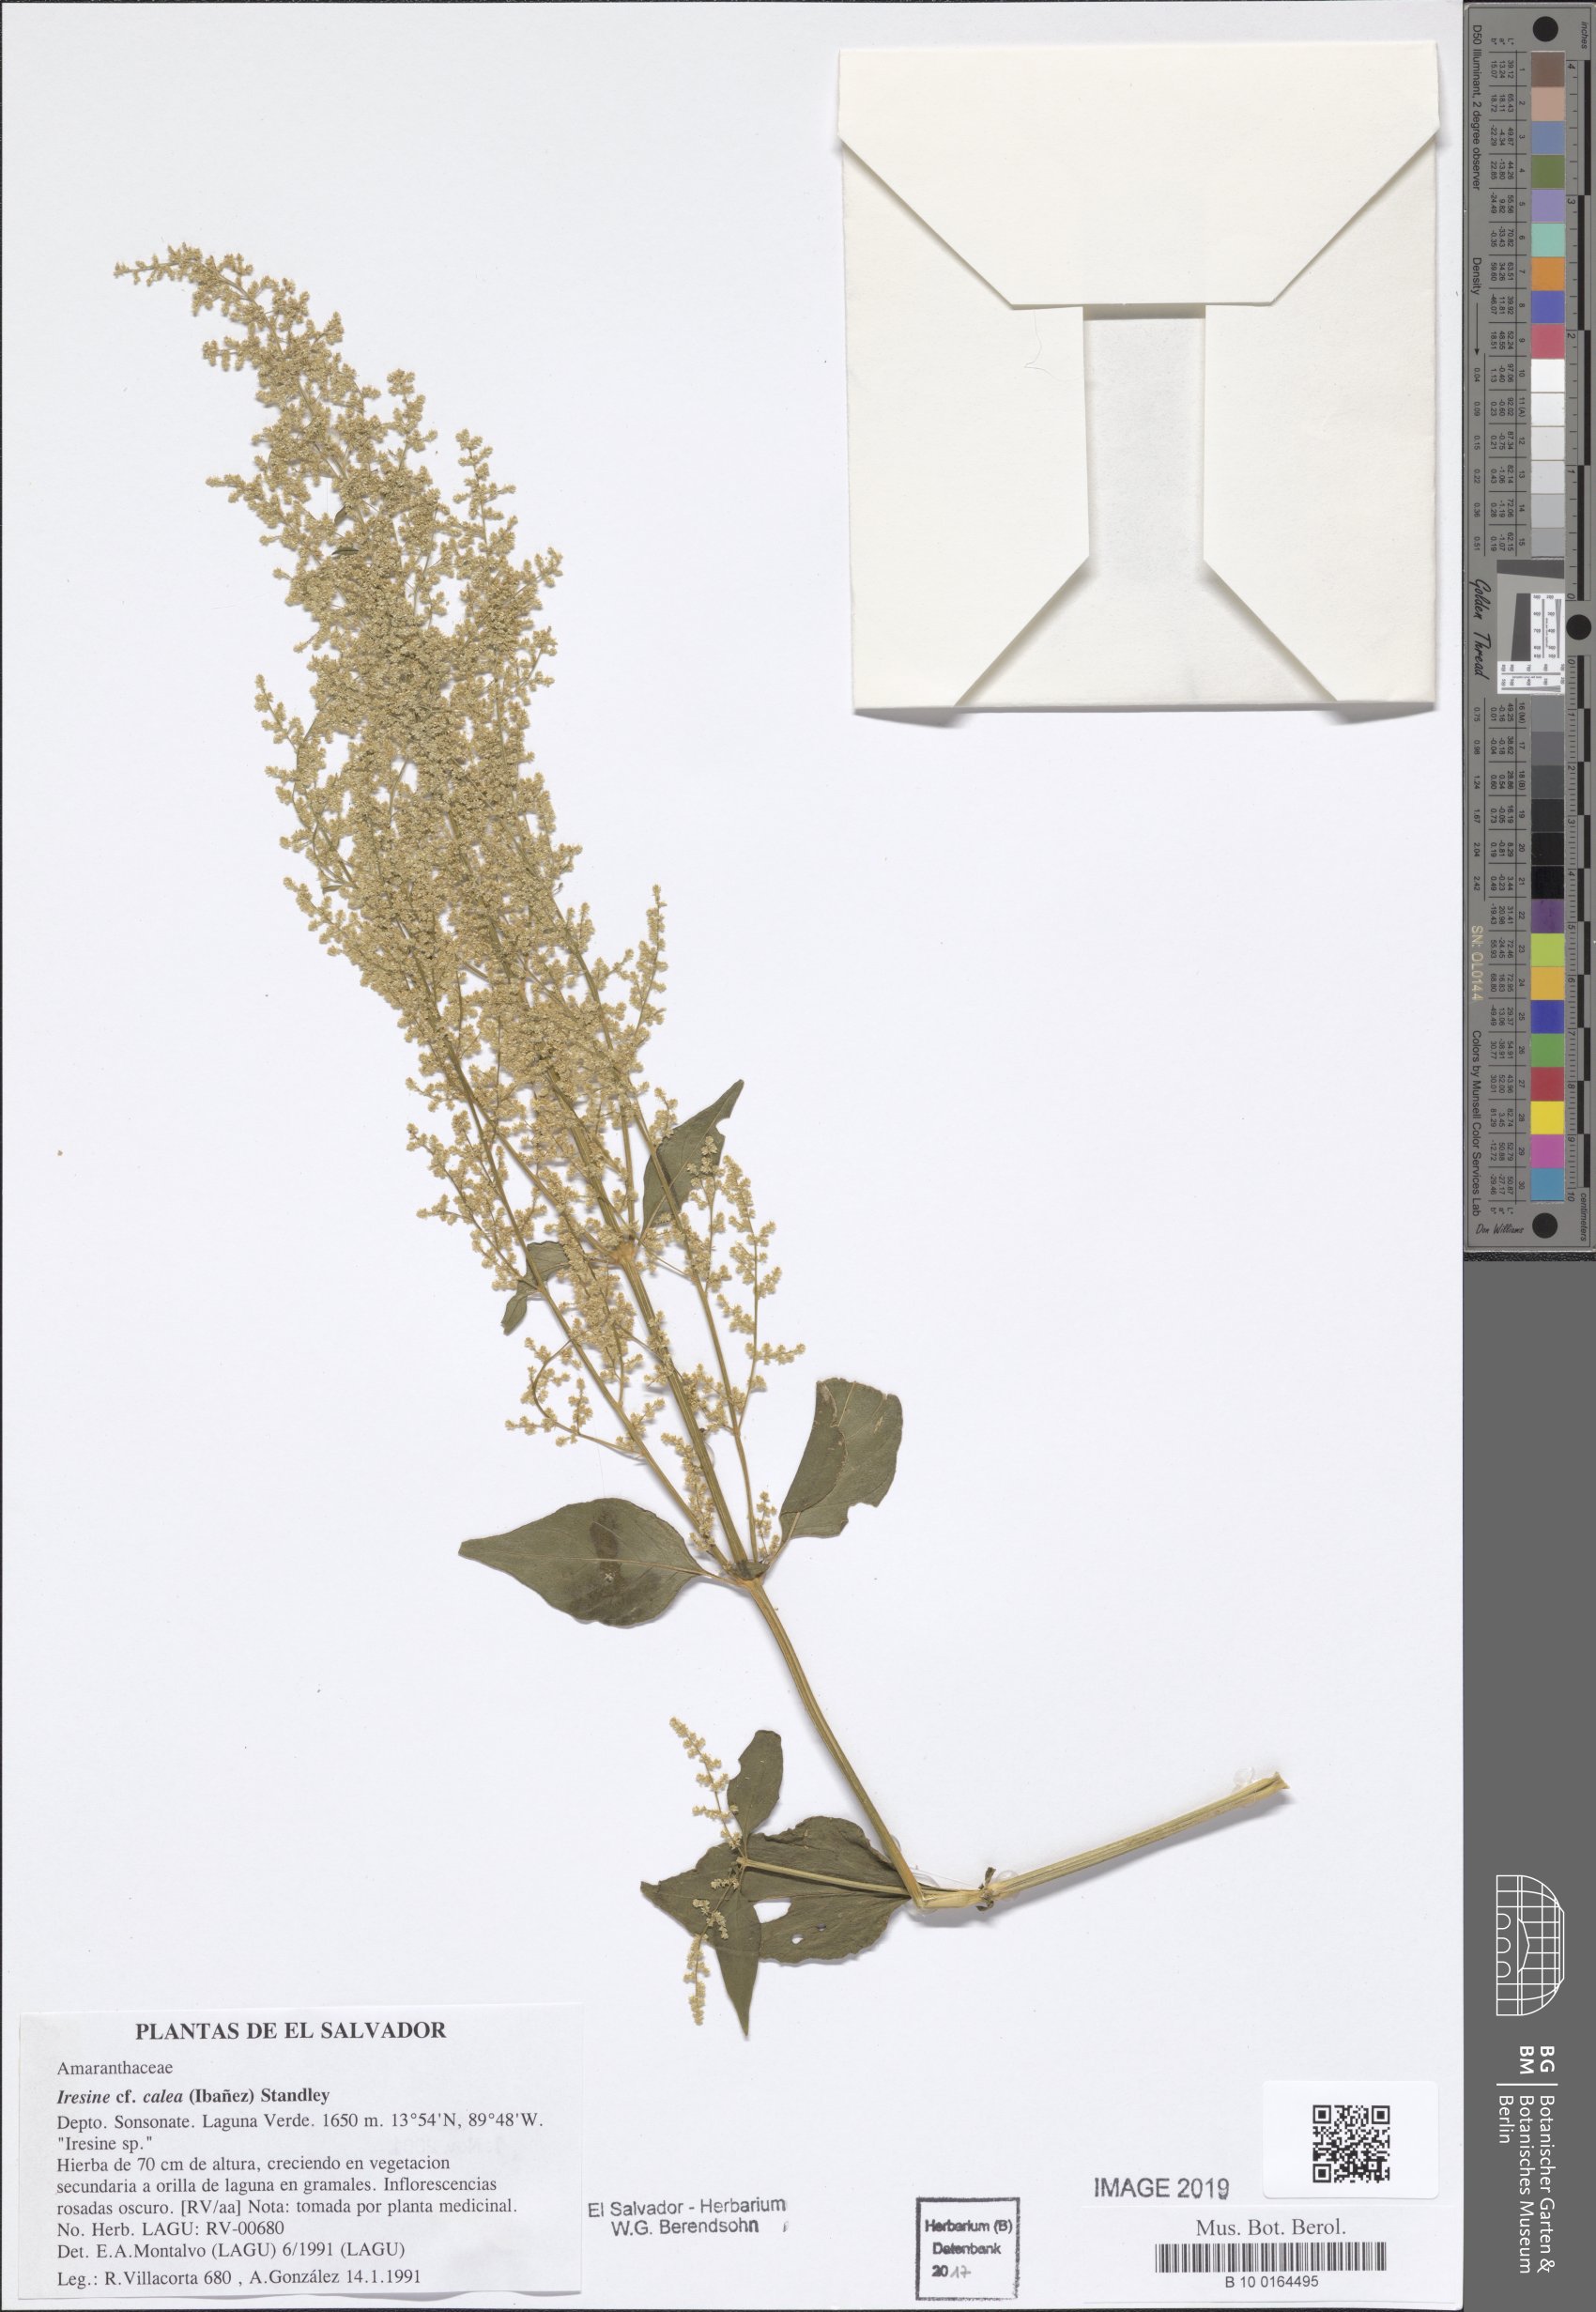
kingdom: Plantae
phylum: Tracheophyta
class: Magnoliopsida
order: Caryophyllales
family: Amaranthaceae
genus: Iresine
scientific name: Iresine latifolia
